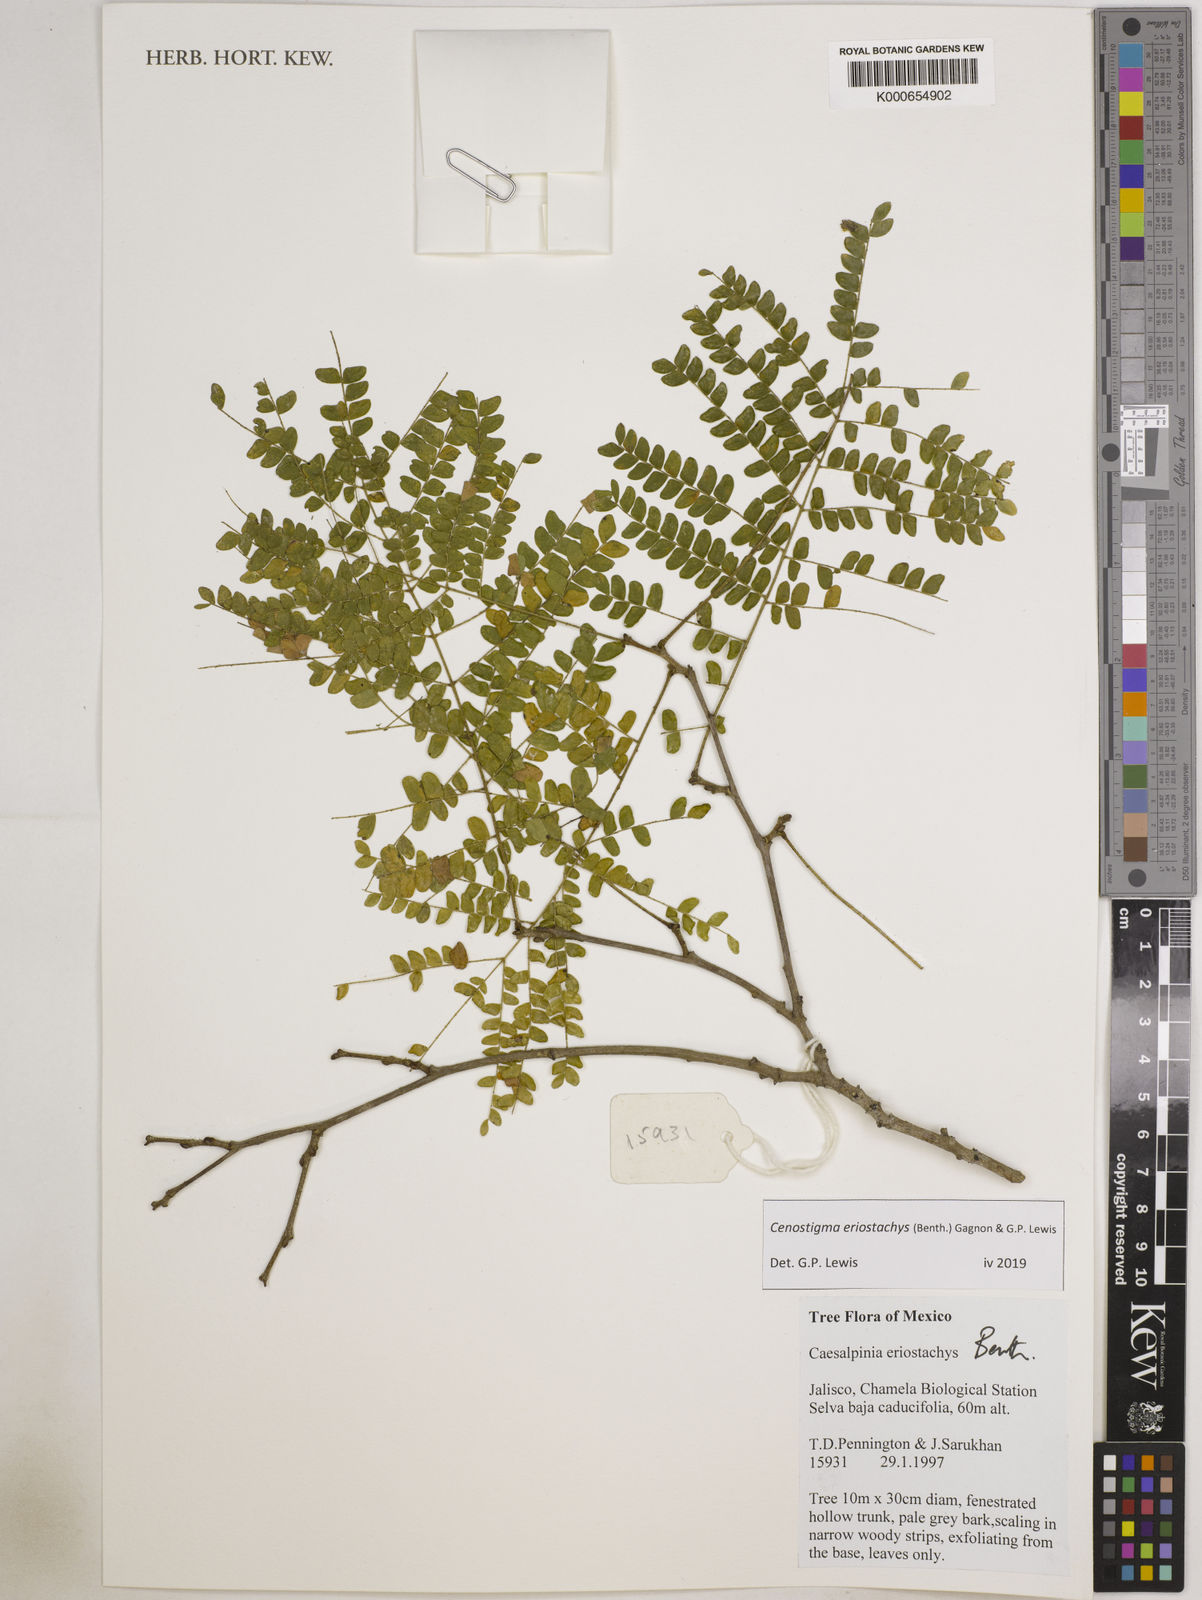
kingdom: Plantae
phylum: Tracheophyta
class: Magnoliopsida
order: Fabales
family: Fabaceae
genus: Cenostigma
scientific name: Cenostigma eriostachys
